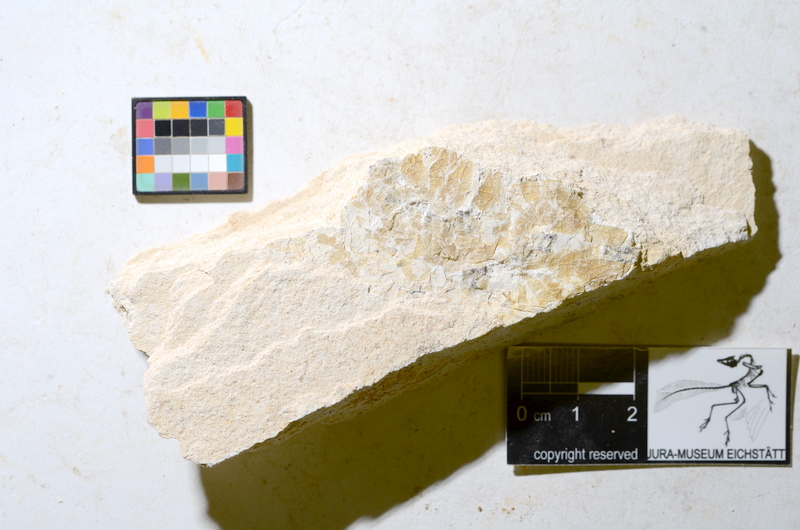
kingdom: Animalia
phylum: Chordata
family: Aspidorhynchidae
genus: Aspidorhynchus
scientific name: Aspidorhynchus acutirostris
